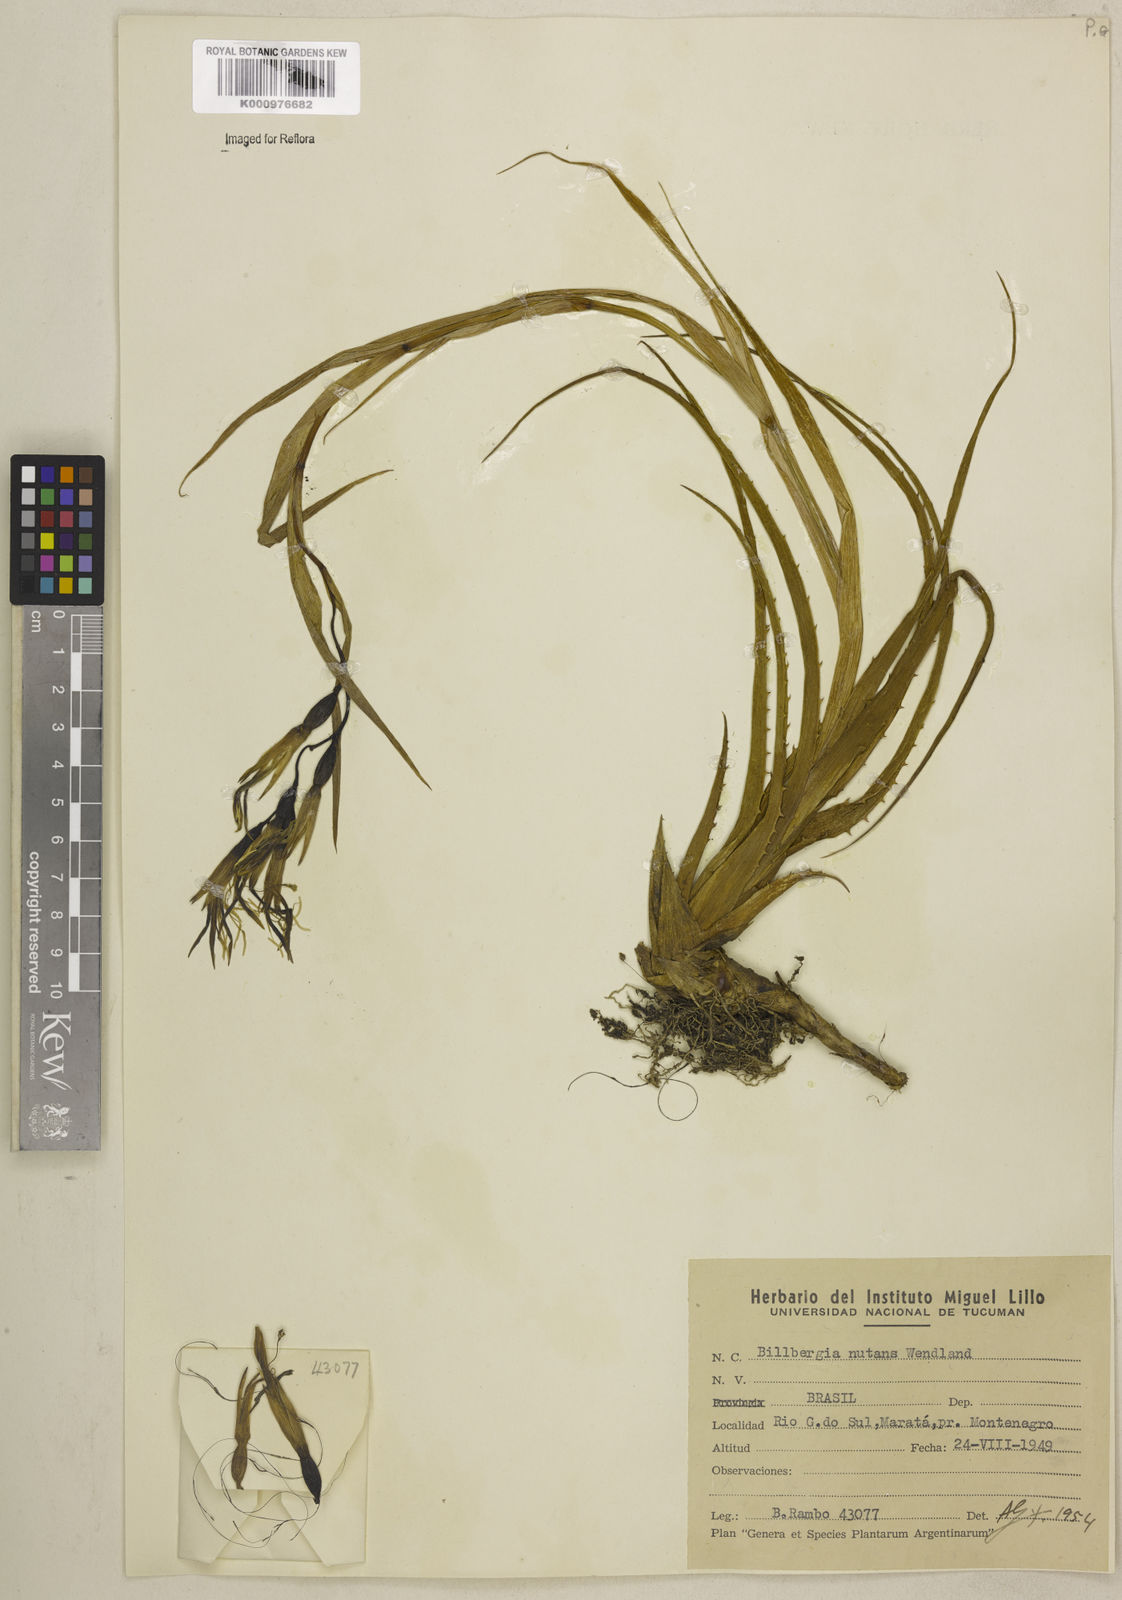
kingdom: Plantae
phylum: Tracheophyta
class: Liliopsida
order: Poales
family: Bromeliaceae
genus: Billbergia
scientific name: Billbergia nutans
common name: Friendship-plant
